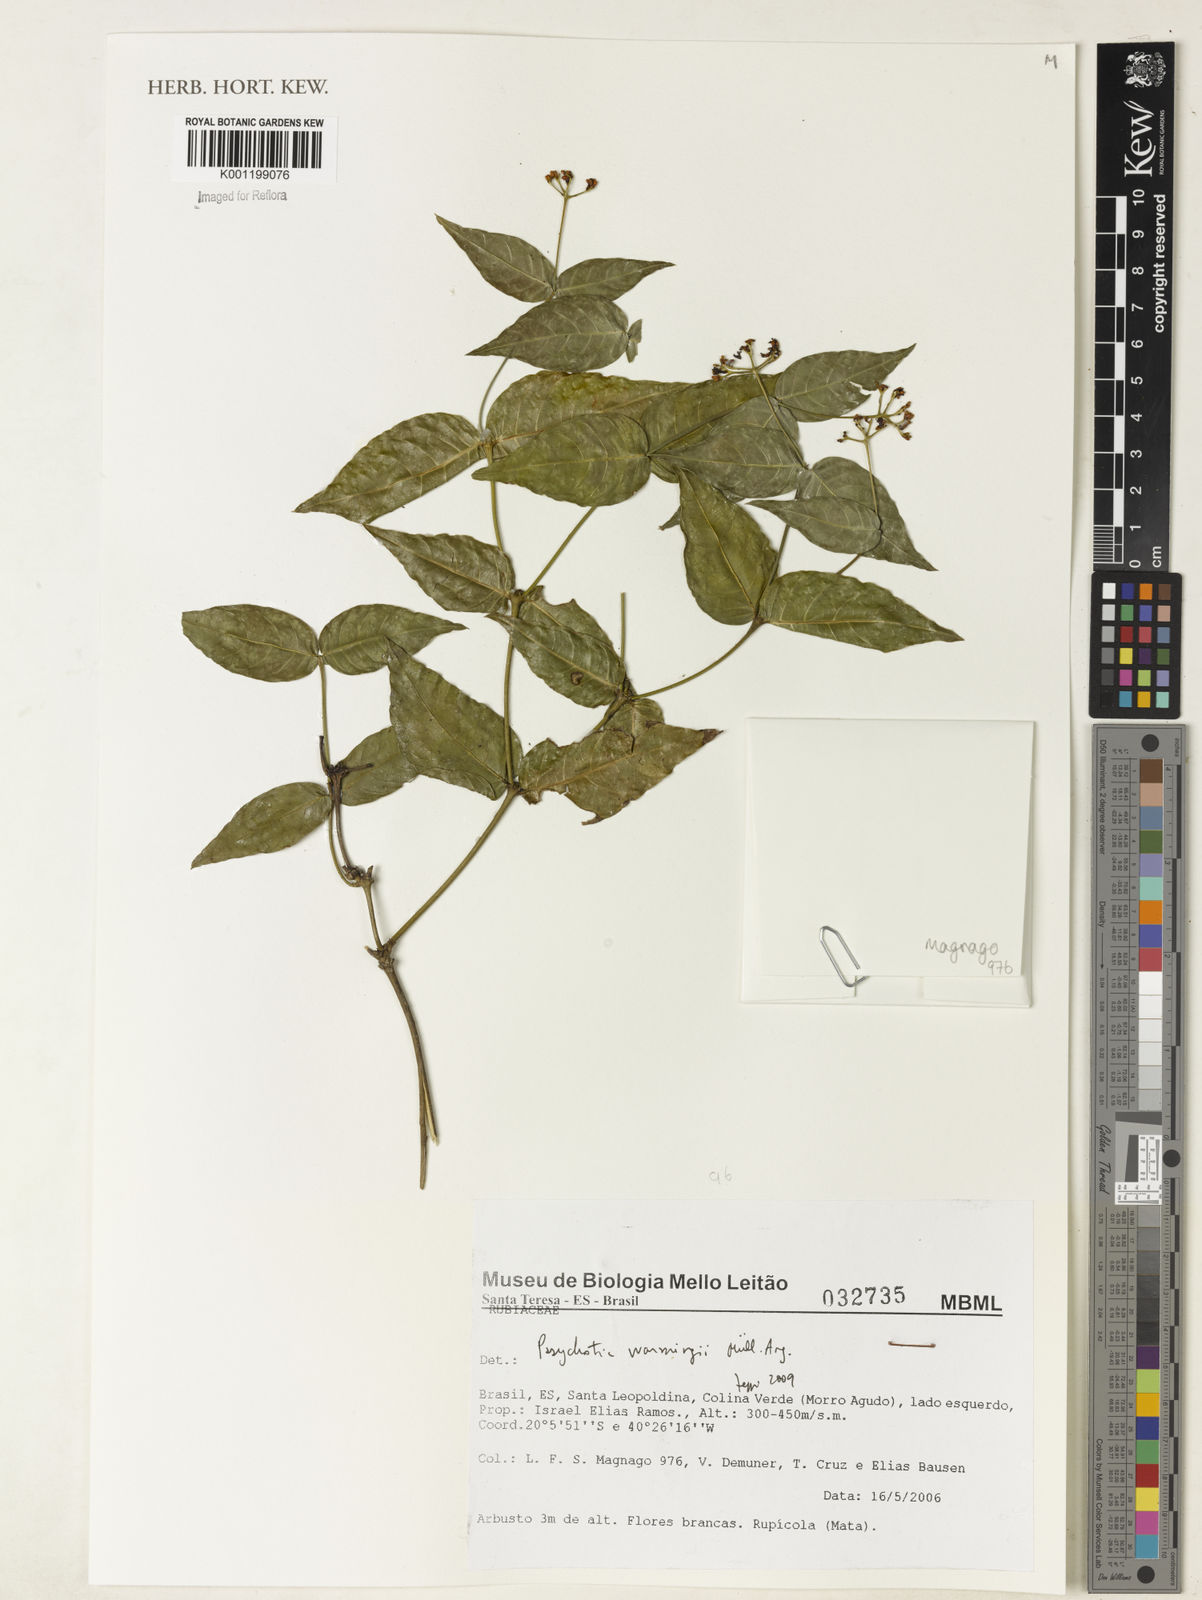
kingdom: Plantae
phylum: Tracheophyta
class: Magnoliopsida
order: Gentianales
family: Rubiaceae
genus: Psychotria
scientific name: Psychotria
